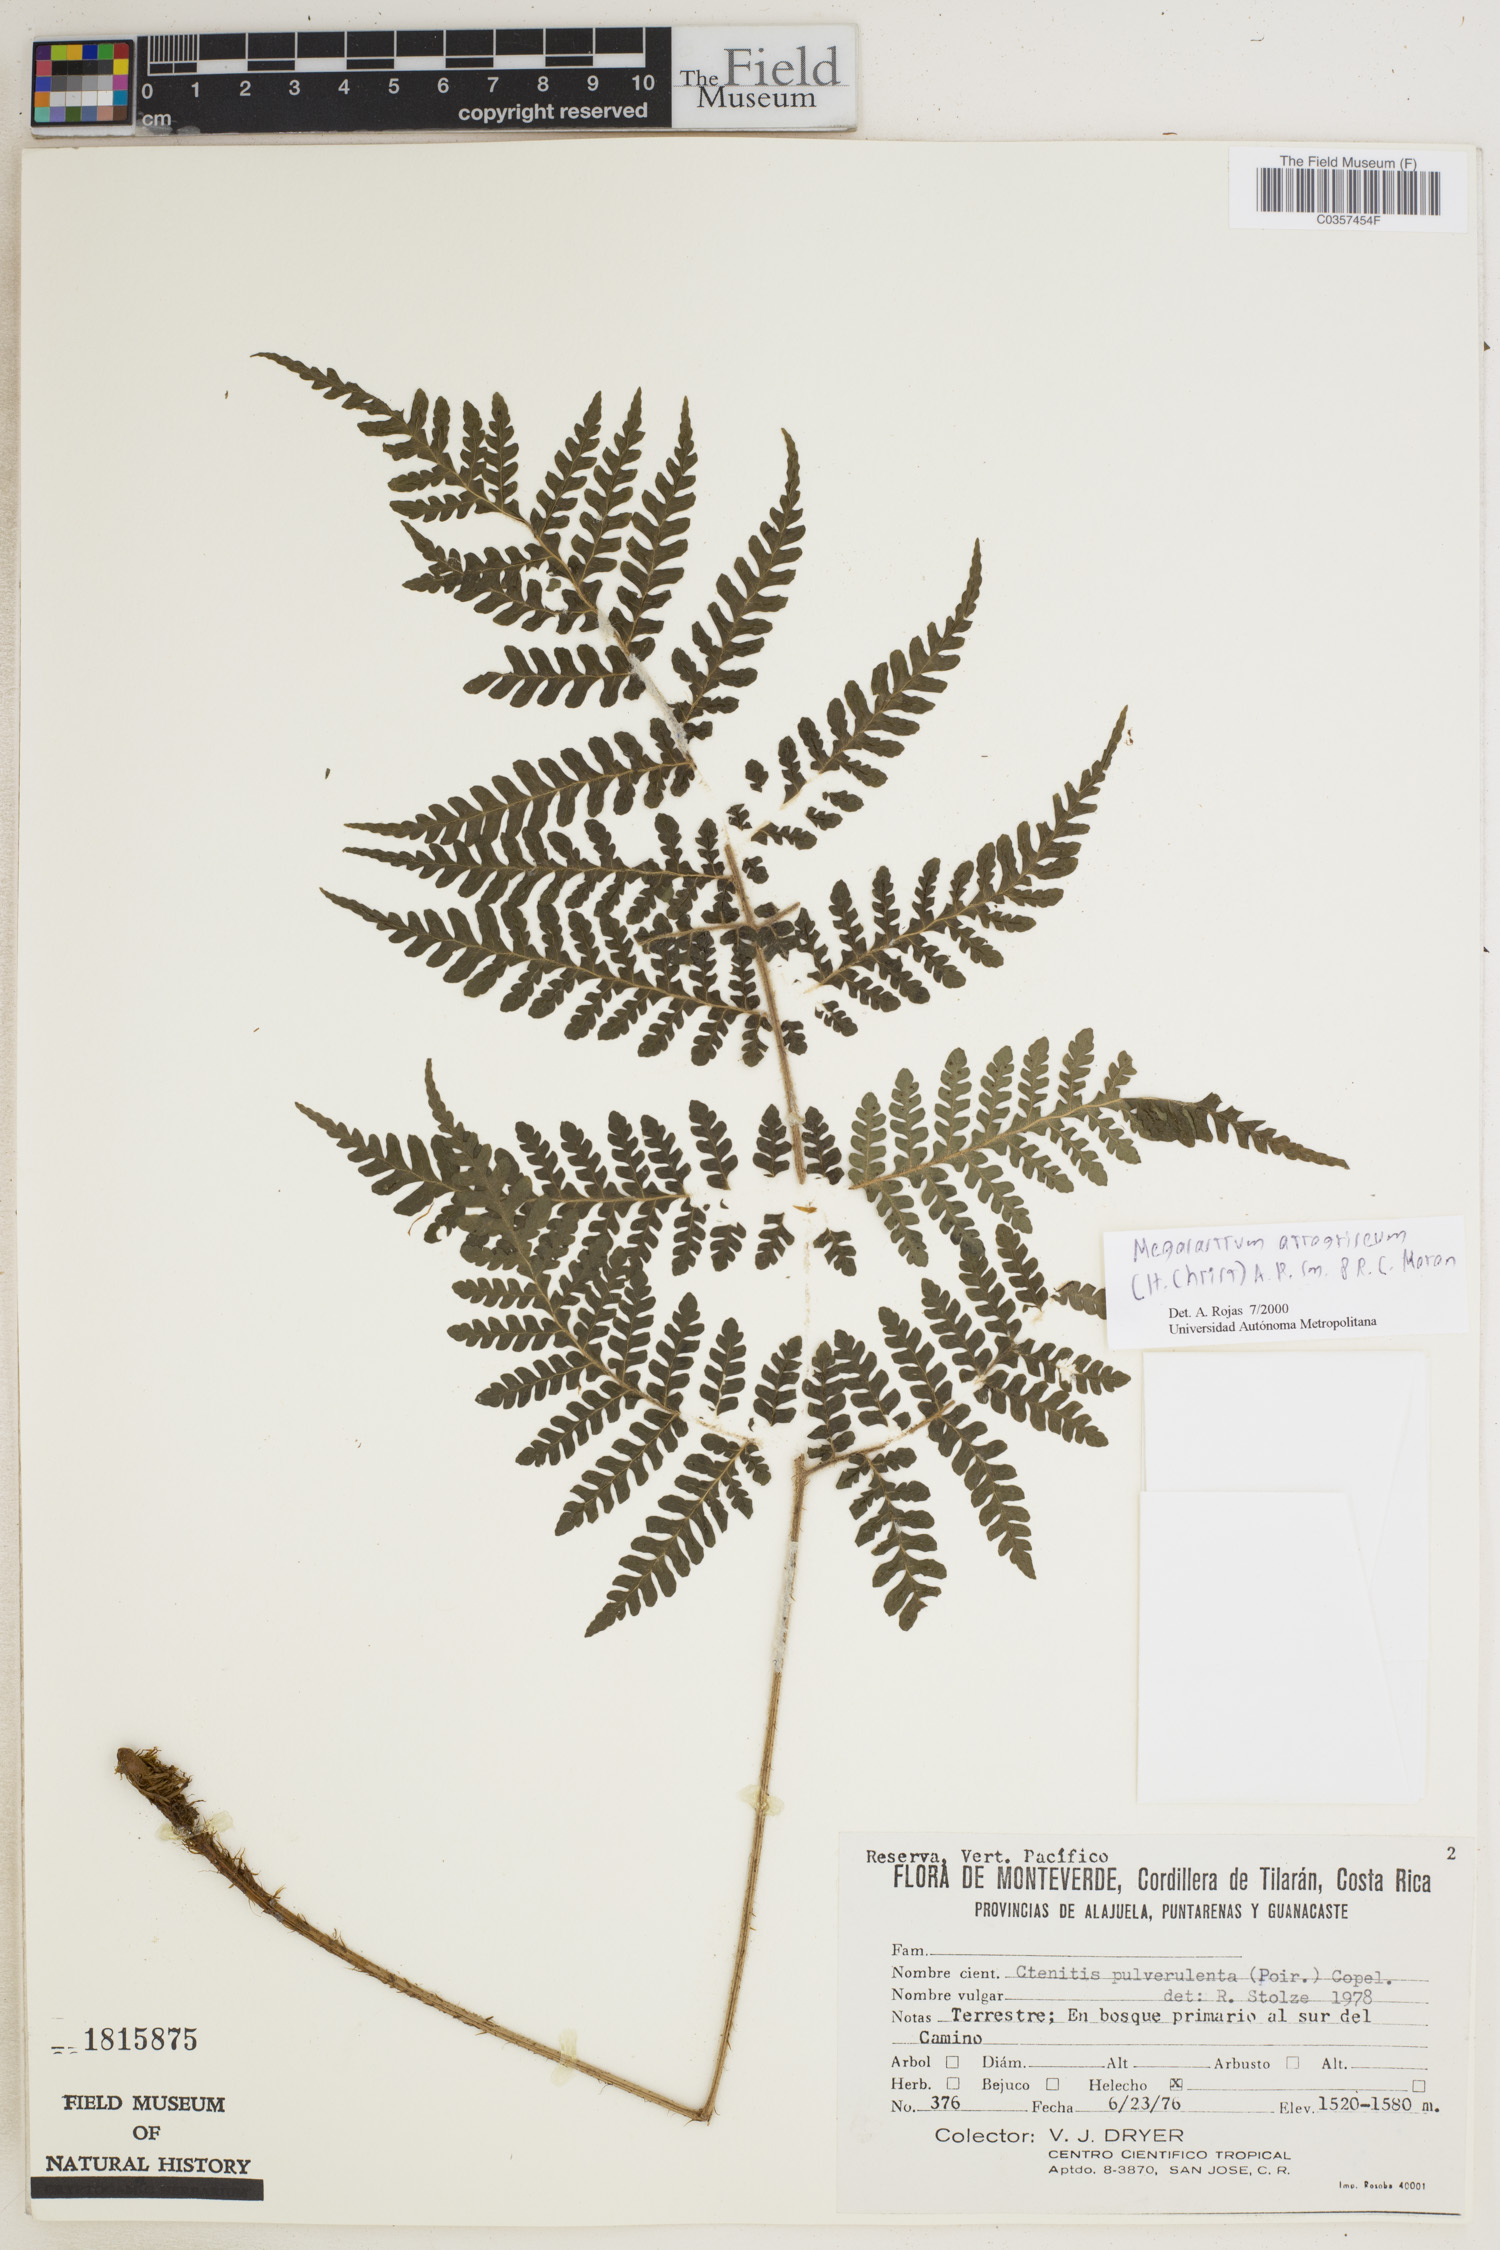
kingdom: Plantae
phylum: Tracheophyta
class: Polypodiopsida
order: Polypodiales
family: Dryopteridaceae
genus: Megalastrum
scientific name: Megalastrum atrogriseum
